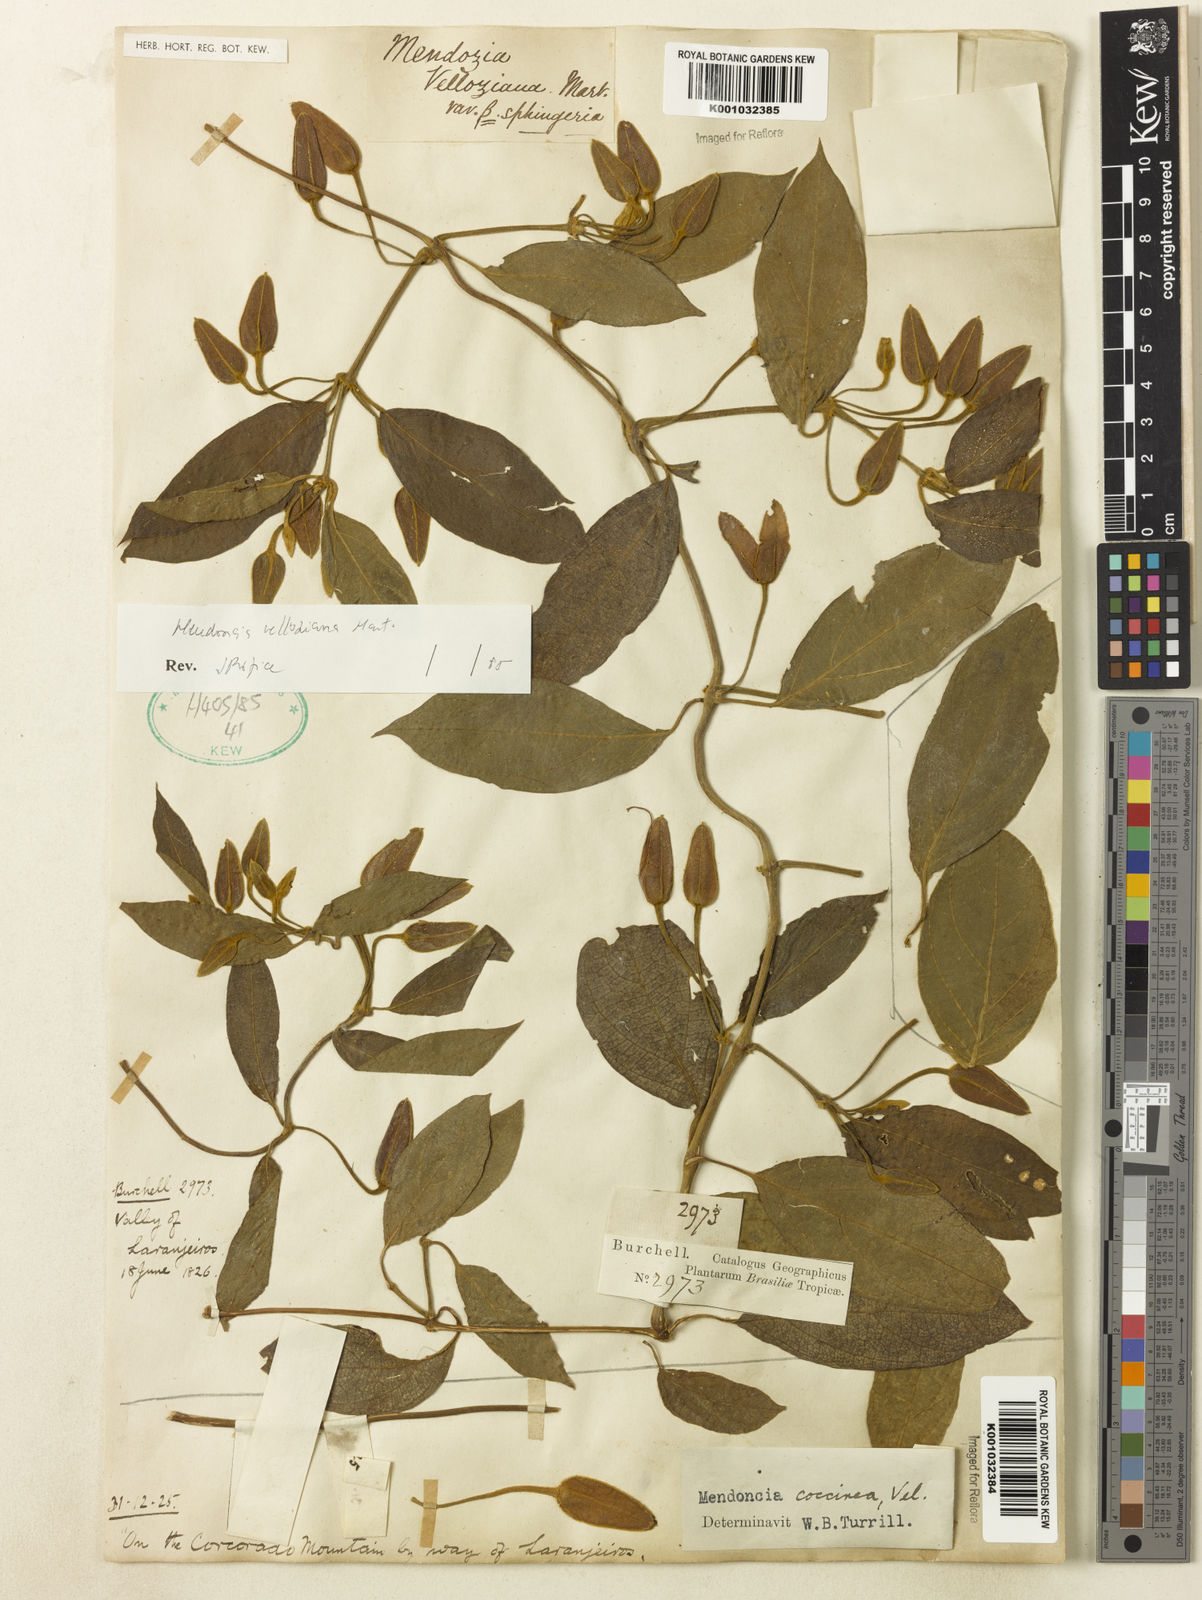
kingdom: Plantae
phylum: Tracheophyta
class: Magnoliopsida
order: Lamiales
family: Acanthaceae
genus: Mendoncia
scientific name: Mendoncia velloziana
